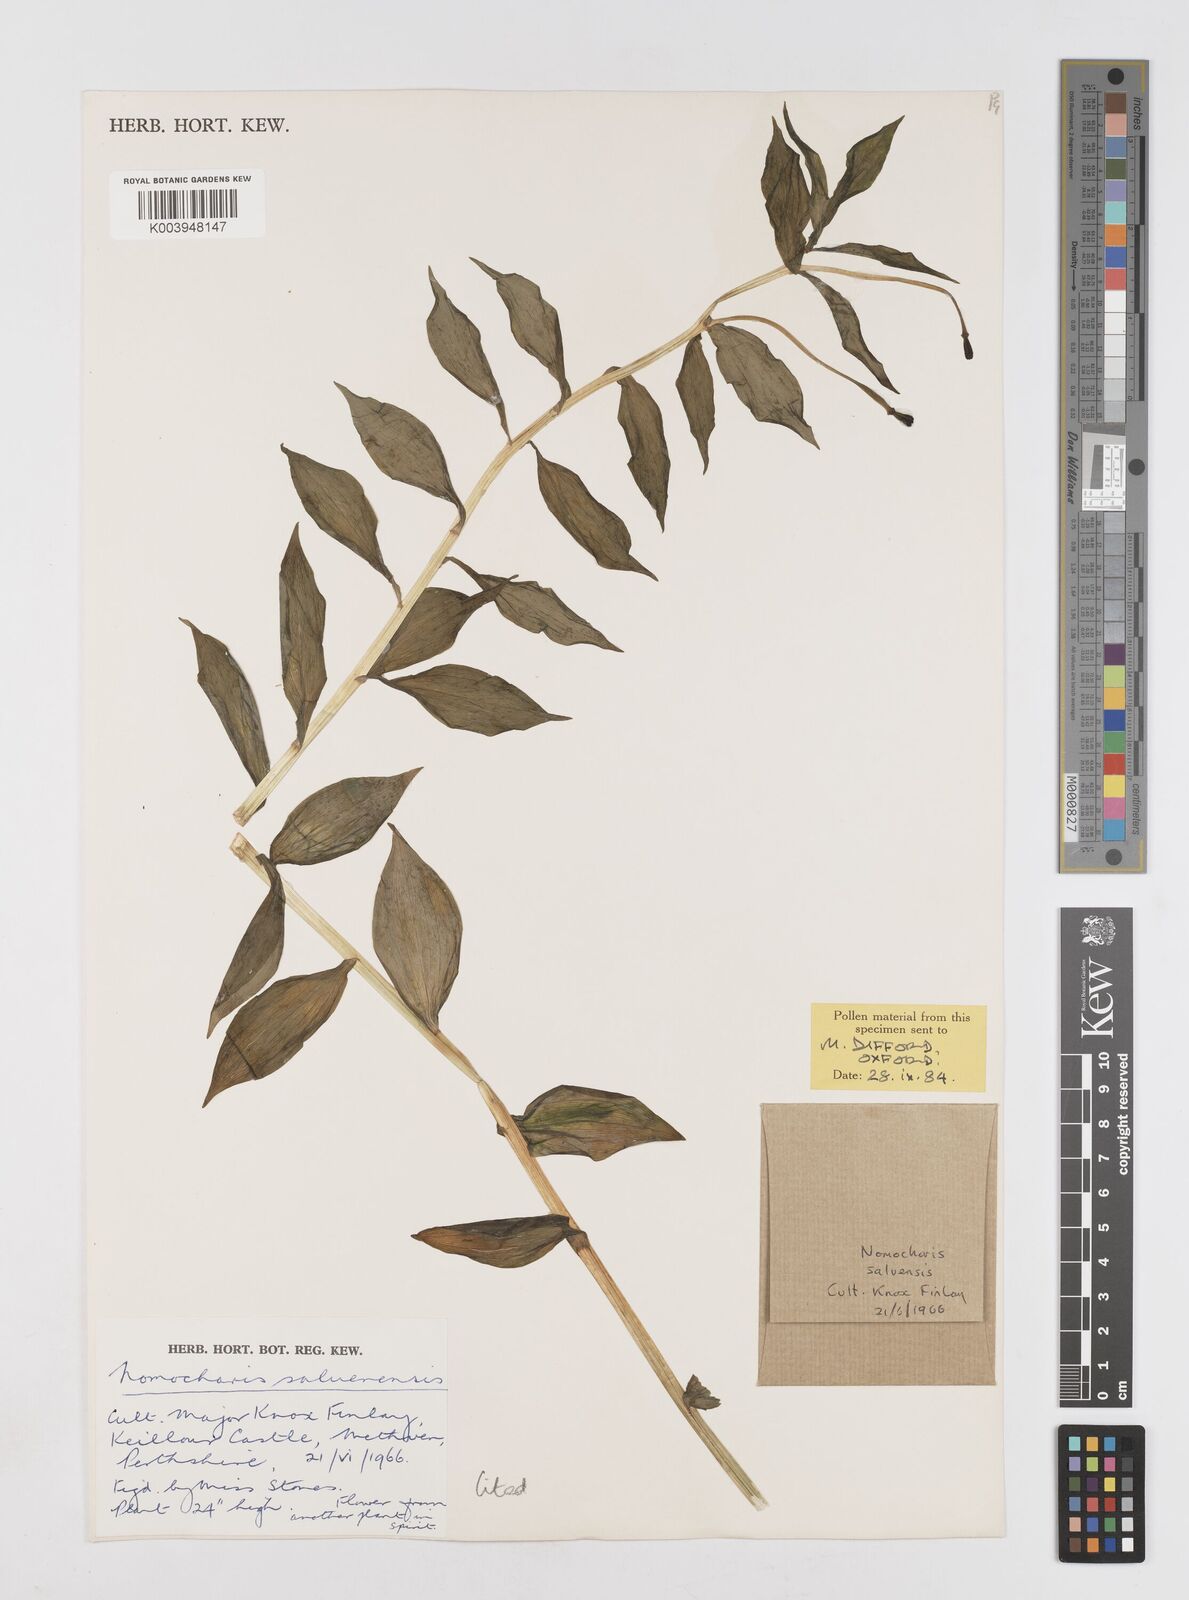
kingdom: Plantae
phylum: Tracheophyta
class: Liliopsida
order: Liliales
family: Liliaceae
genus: Lilium
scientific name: Lilium saluenense
